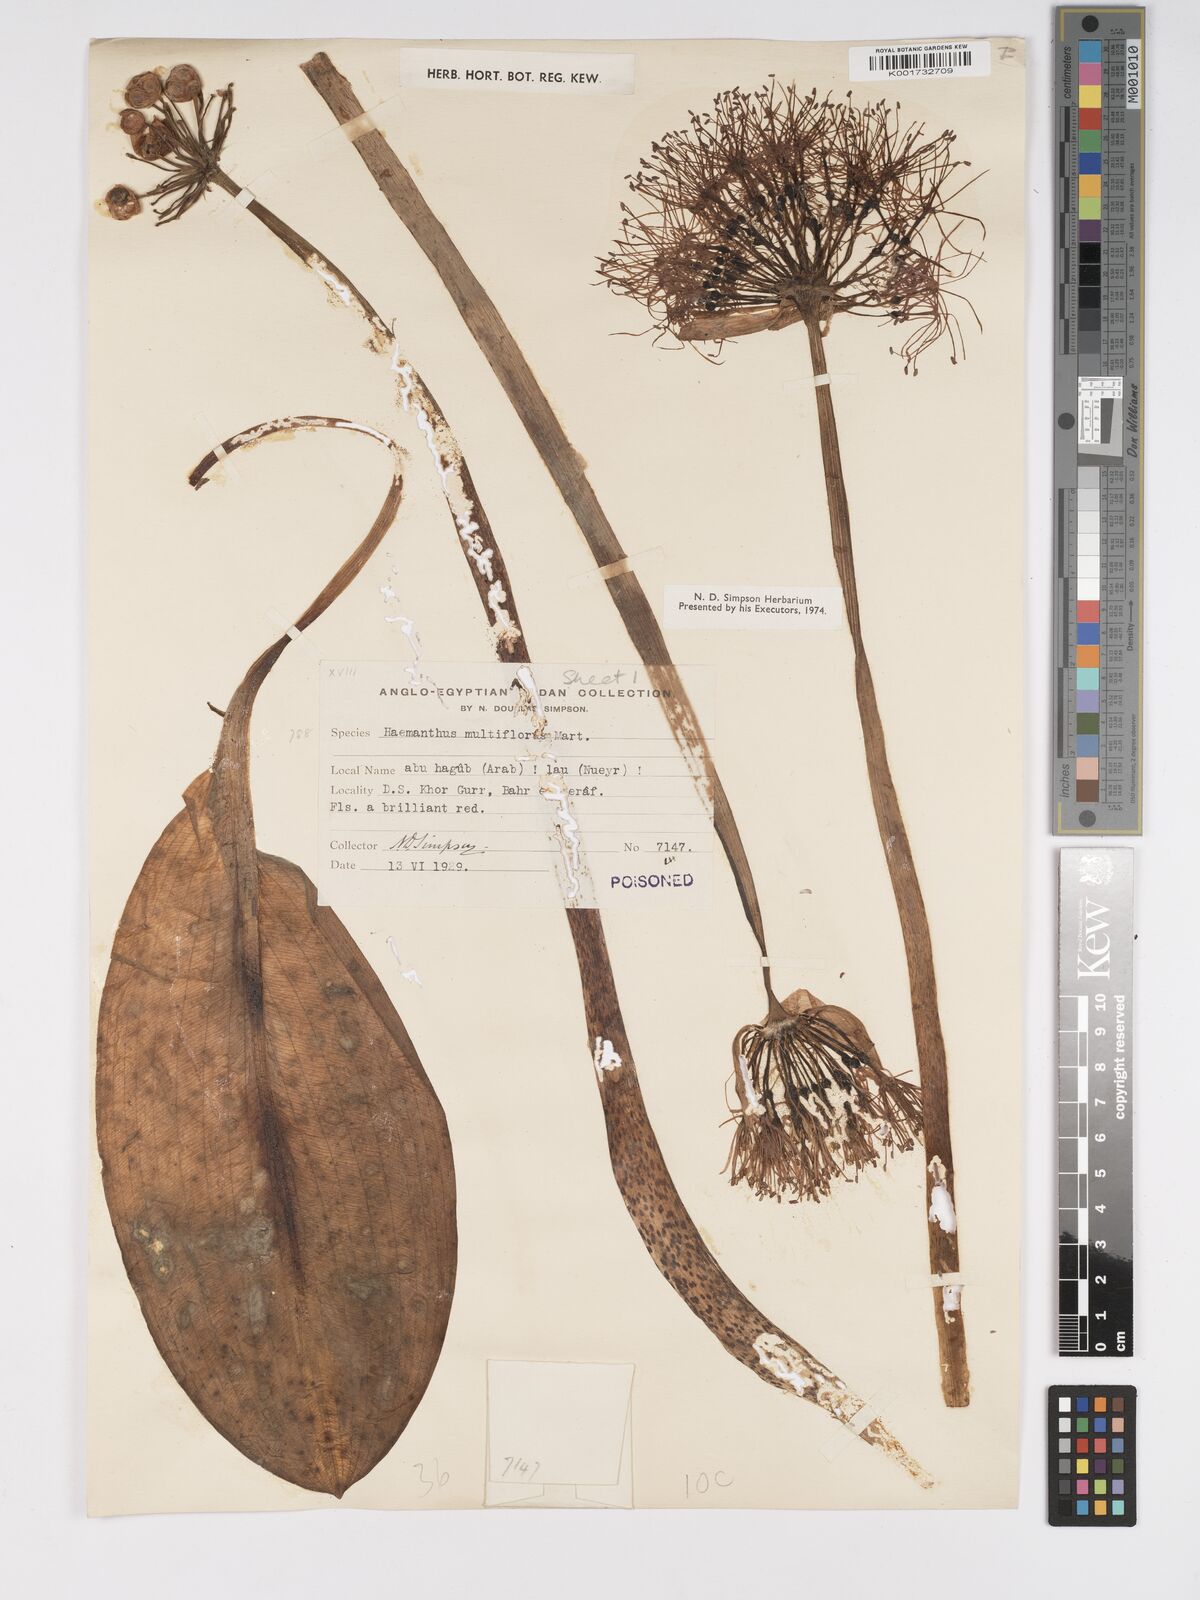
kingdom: Plantae
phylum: Tracheophyta
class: Liliopsida
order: Asparagales
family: Amaryllidaceae
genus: Scadoxus
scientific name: Scadoxus multiflorus
